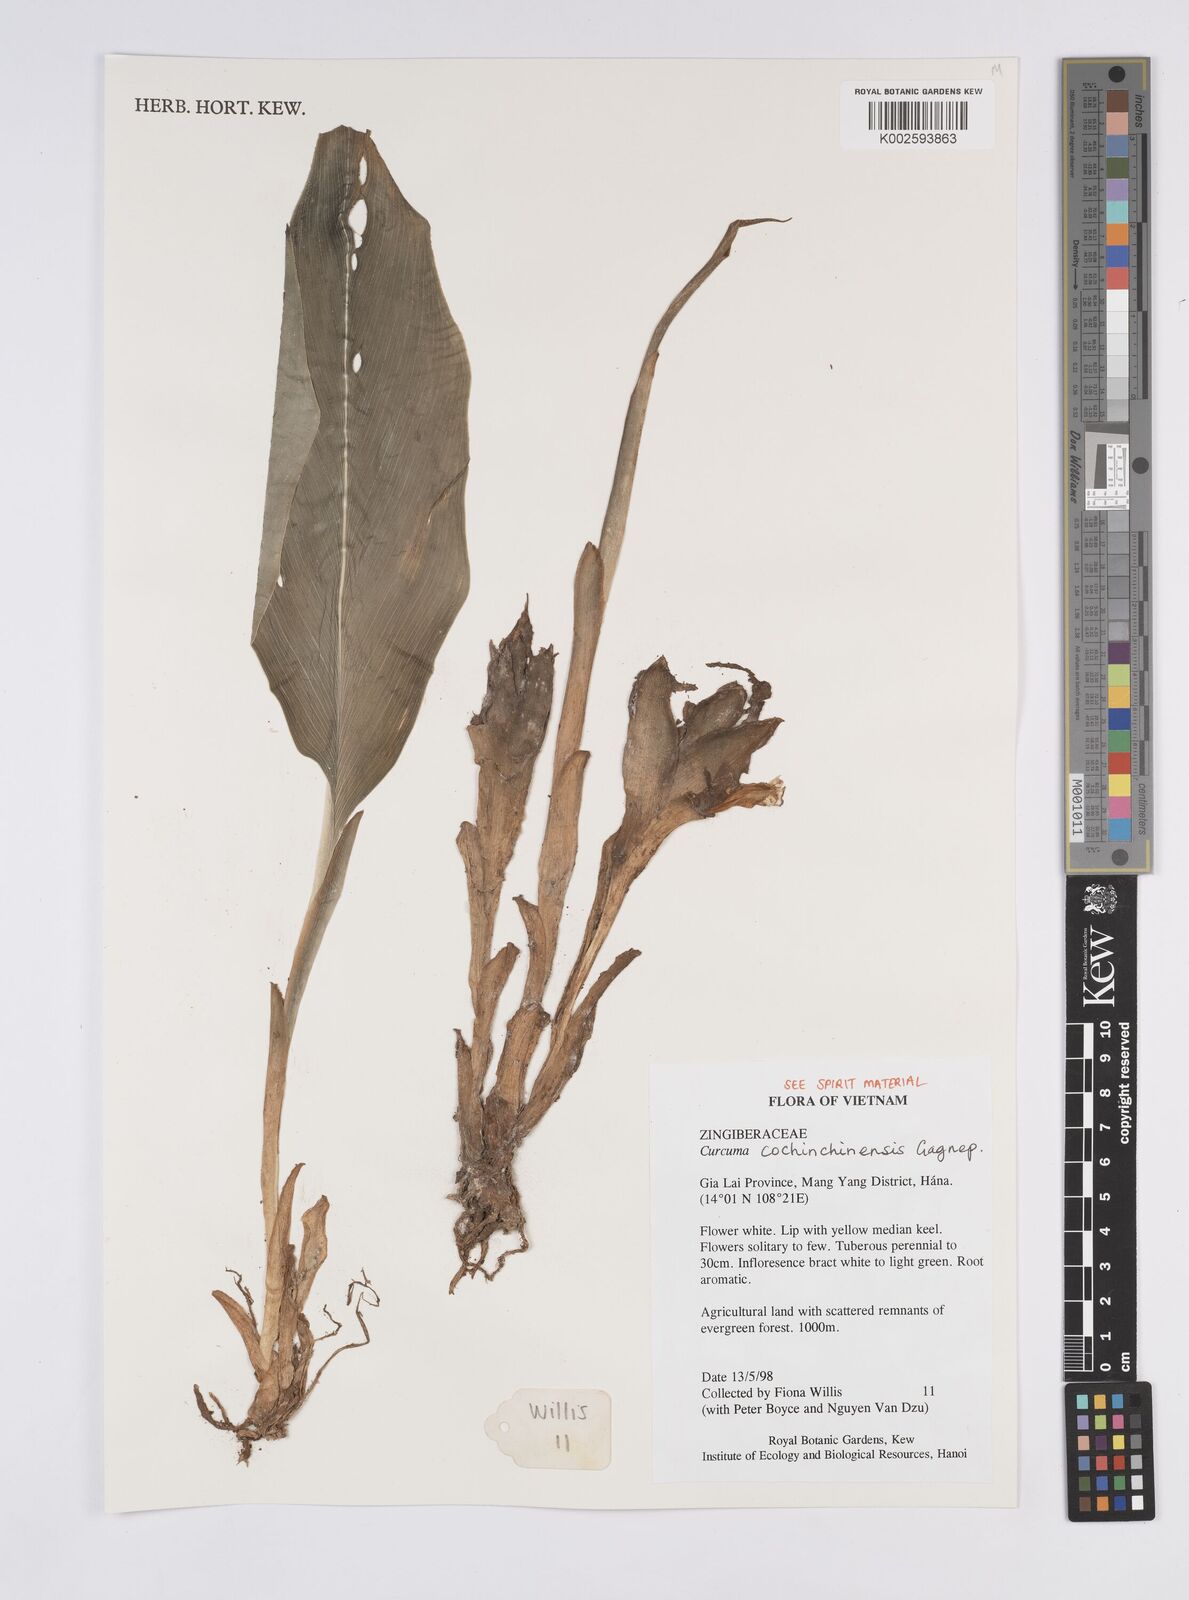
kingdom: Plantae
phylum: Tracheophyta
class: Liliopsida
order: Zingiberales
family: Zingiberaceae
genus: Curcuma
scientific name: Curcuma cochinchinensis
